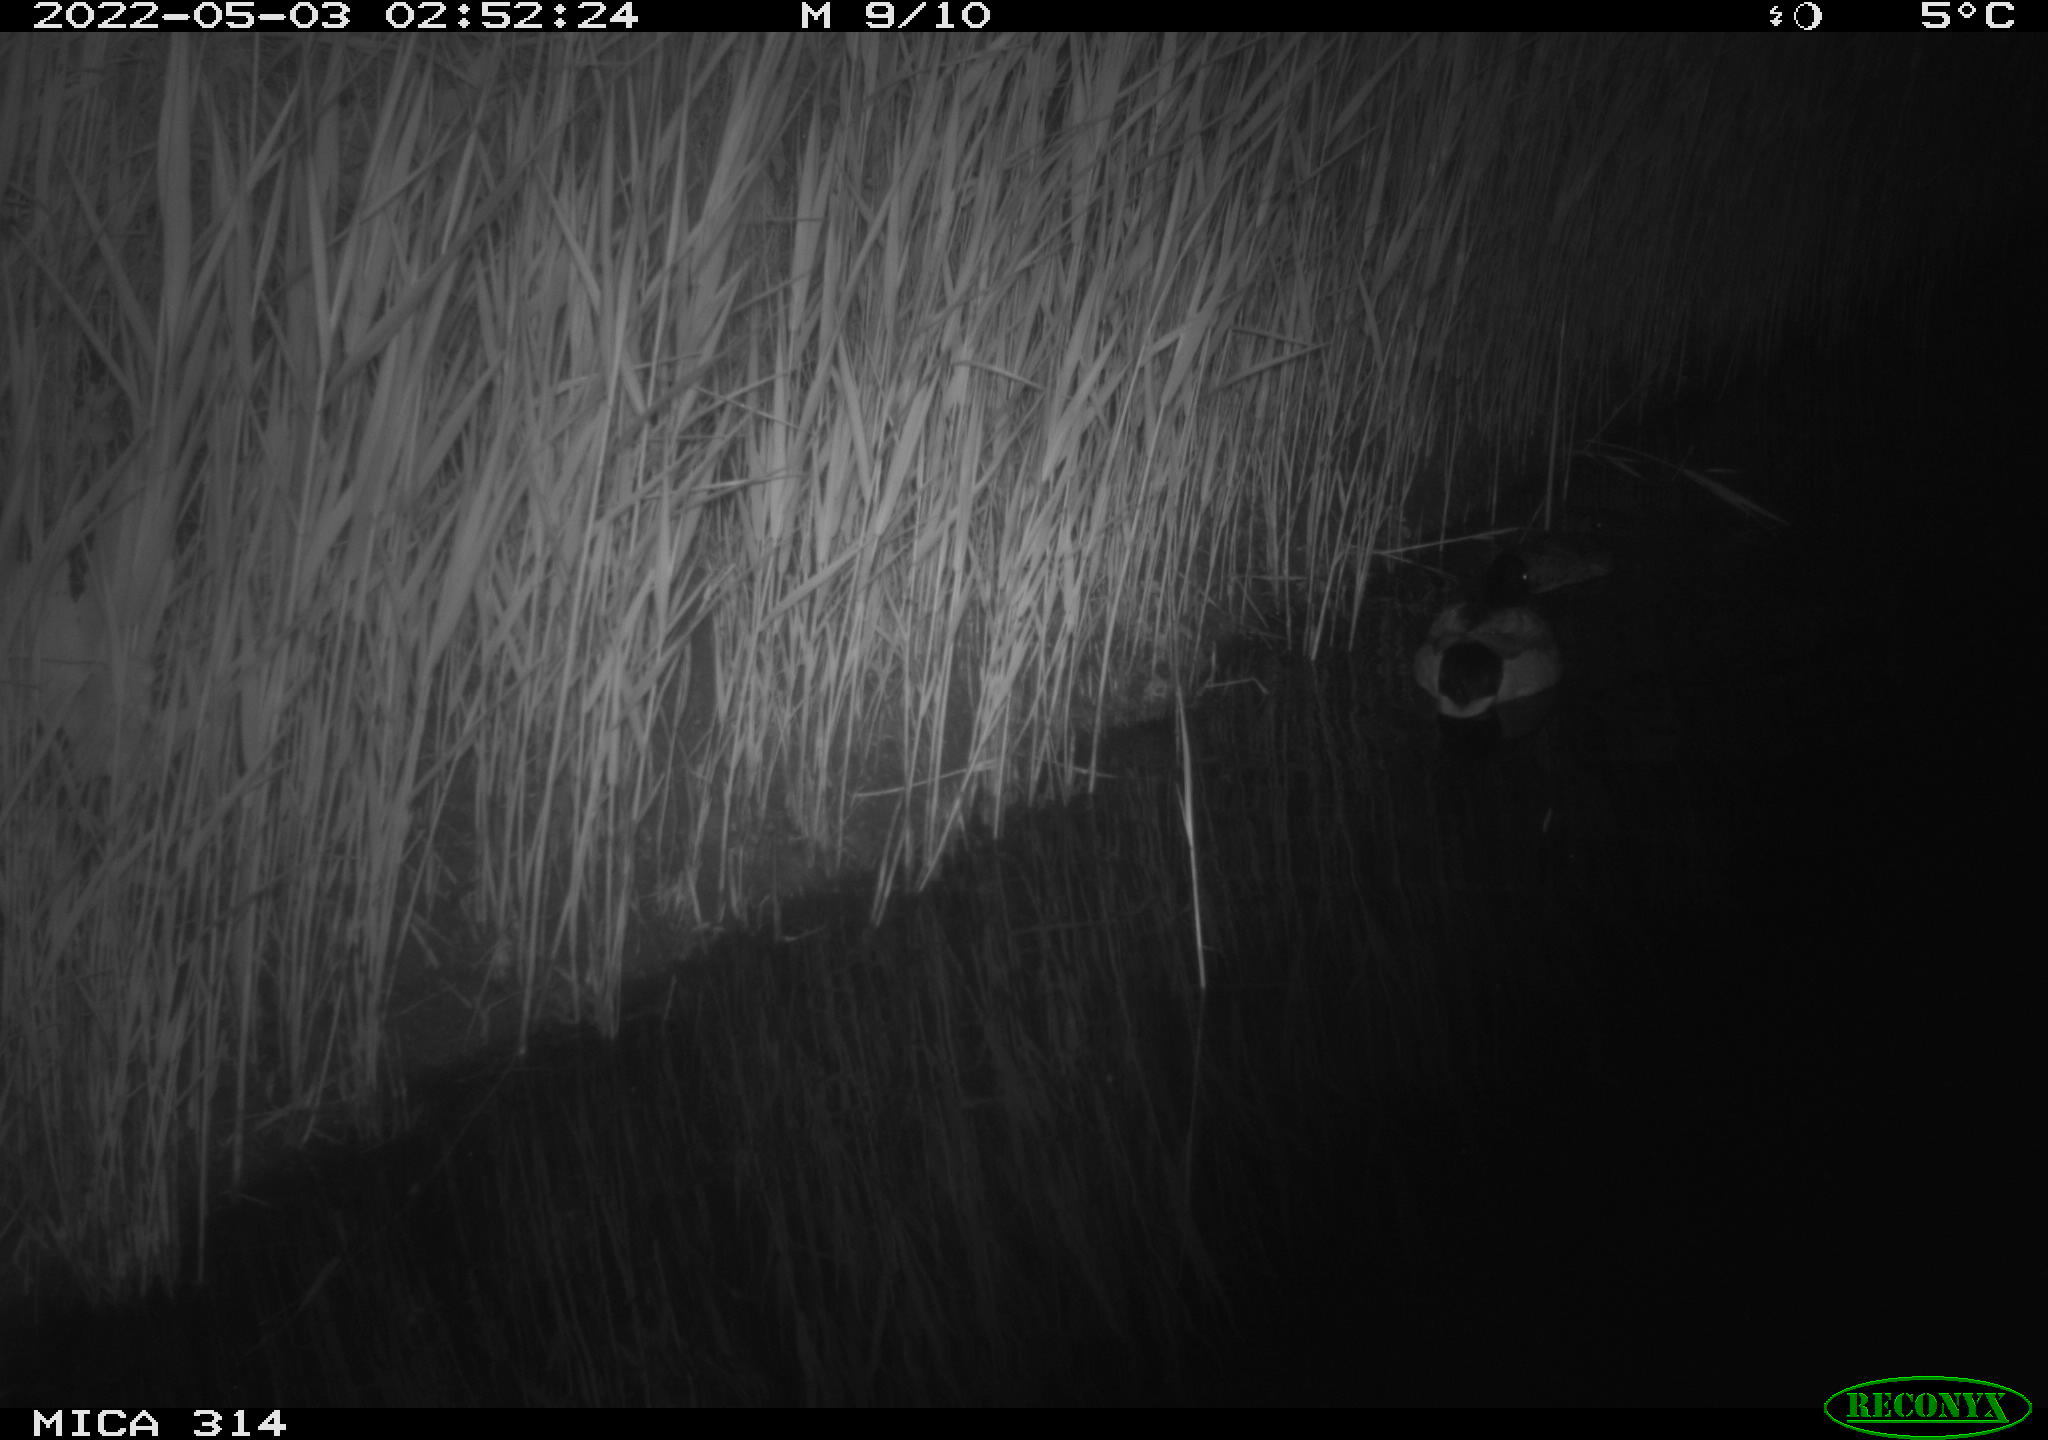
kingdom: Animalia
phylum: Chordata
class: Aves
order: Anseriformes
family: Anatidae
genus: Anas
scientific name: Anas platyrhynchos
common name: Mallard
